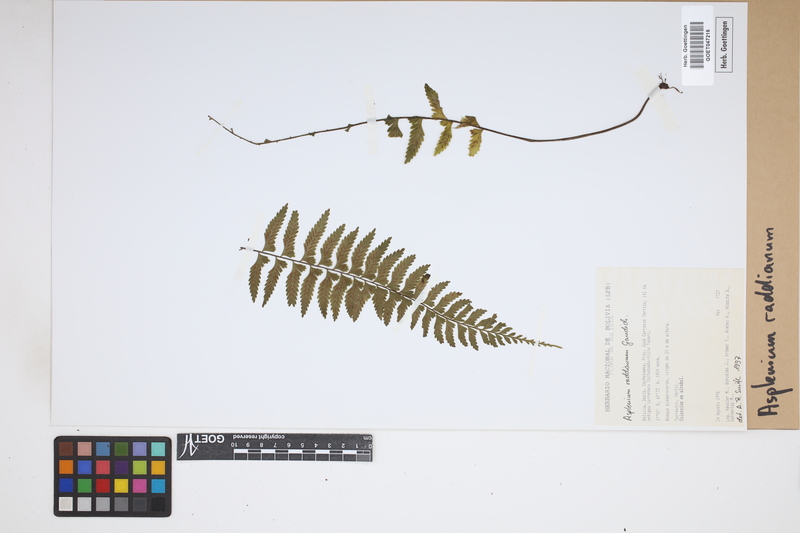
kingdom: Plantae
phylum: Tracheophyta
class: Polypodiopsida
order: Polypodiales
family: Aspleniaceae
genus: Asplenium
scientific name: Asplenium raddianum
